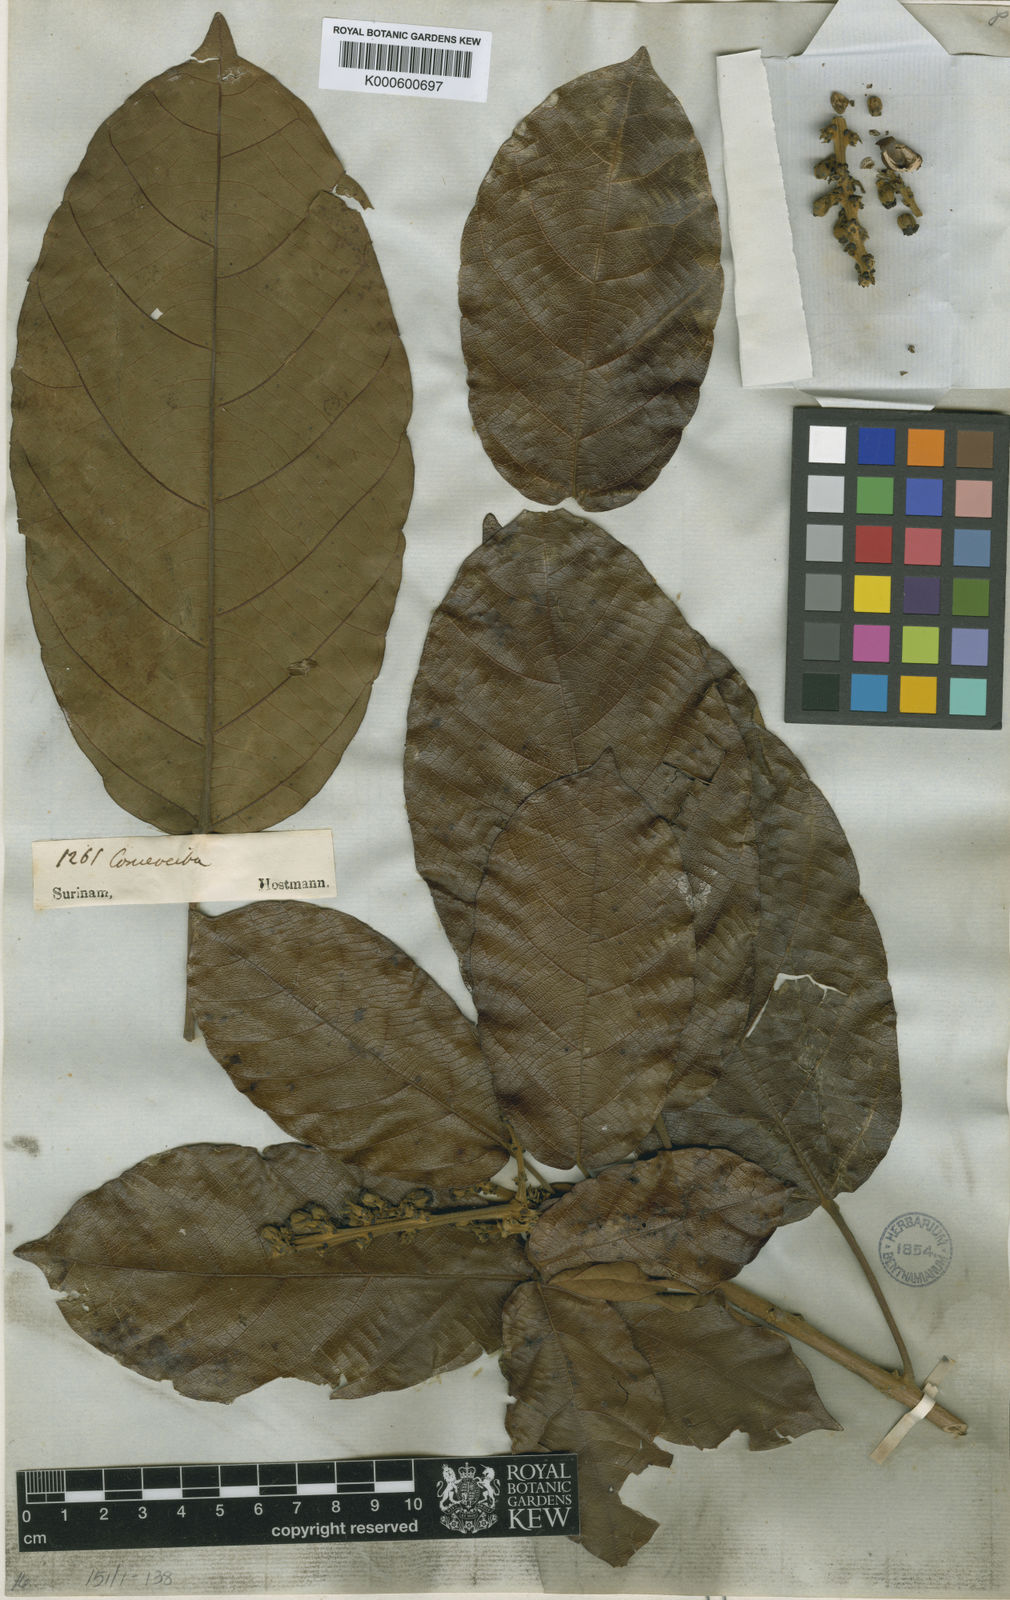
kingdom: Plantae
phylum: Tracheophyta
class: Magnoliopsida
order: Malpighiales
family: Euphorbiaceae
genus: Conceveiba
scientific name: Conceveiba hostmanii
